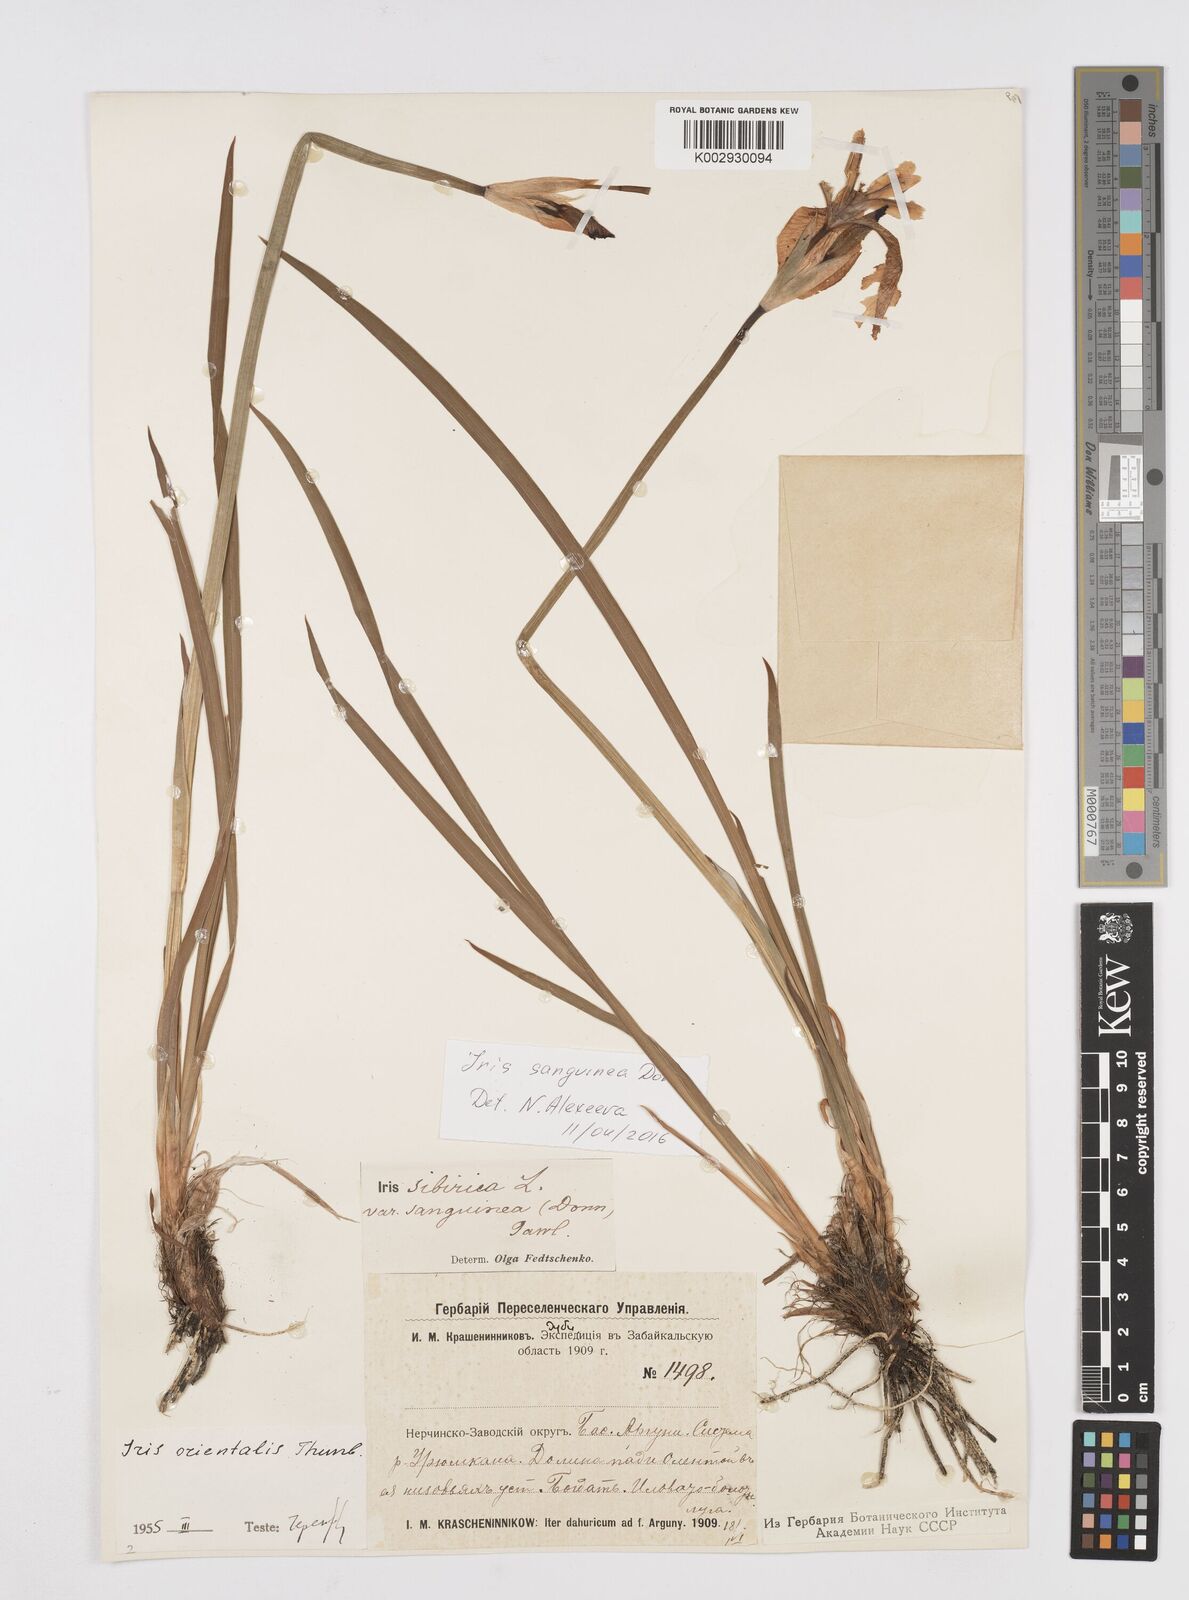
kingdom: Plantae
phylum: Tracheophyta
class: Liliopsida
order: Asparagales
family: Iridaceae
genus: Iris
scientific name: Iris sanguinea
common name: Blood iris
